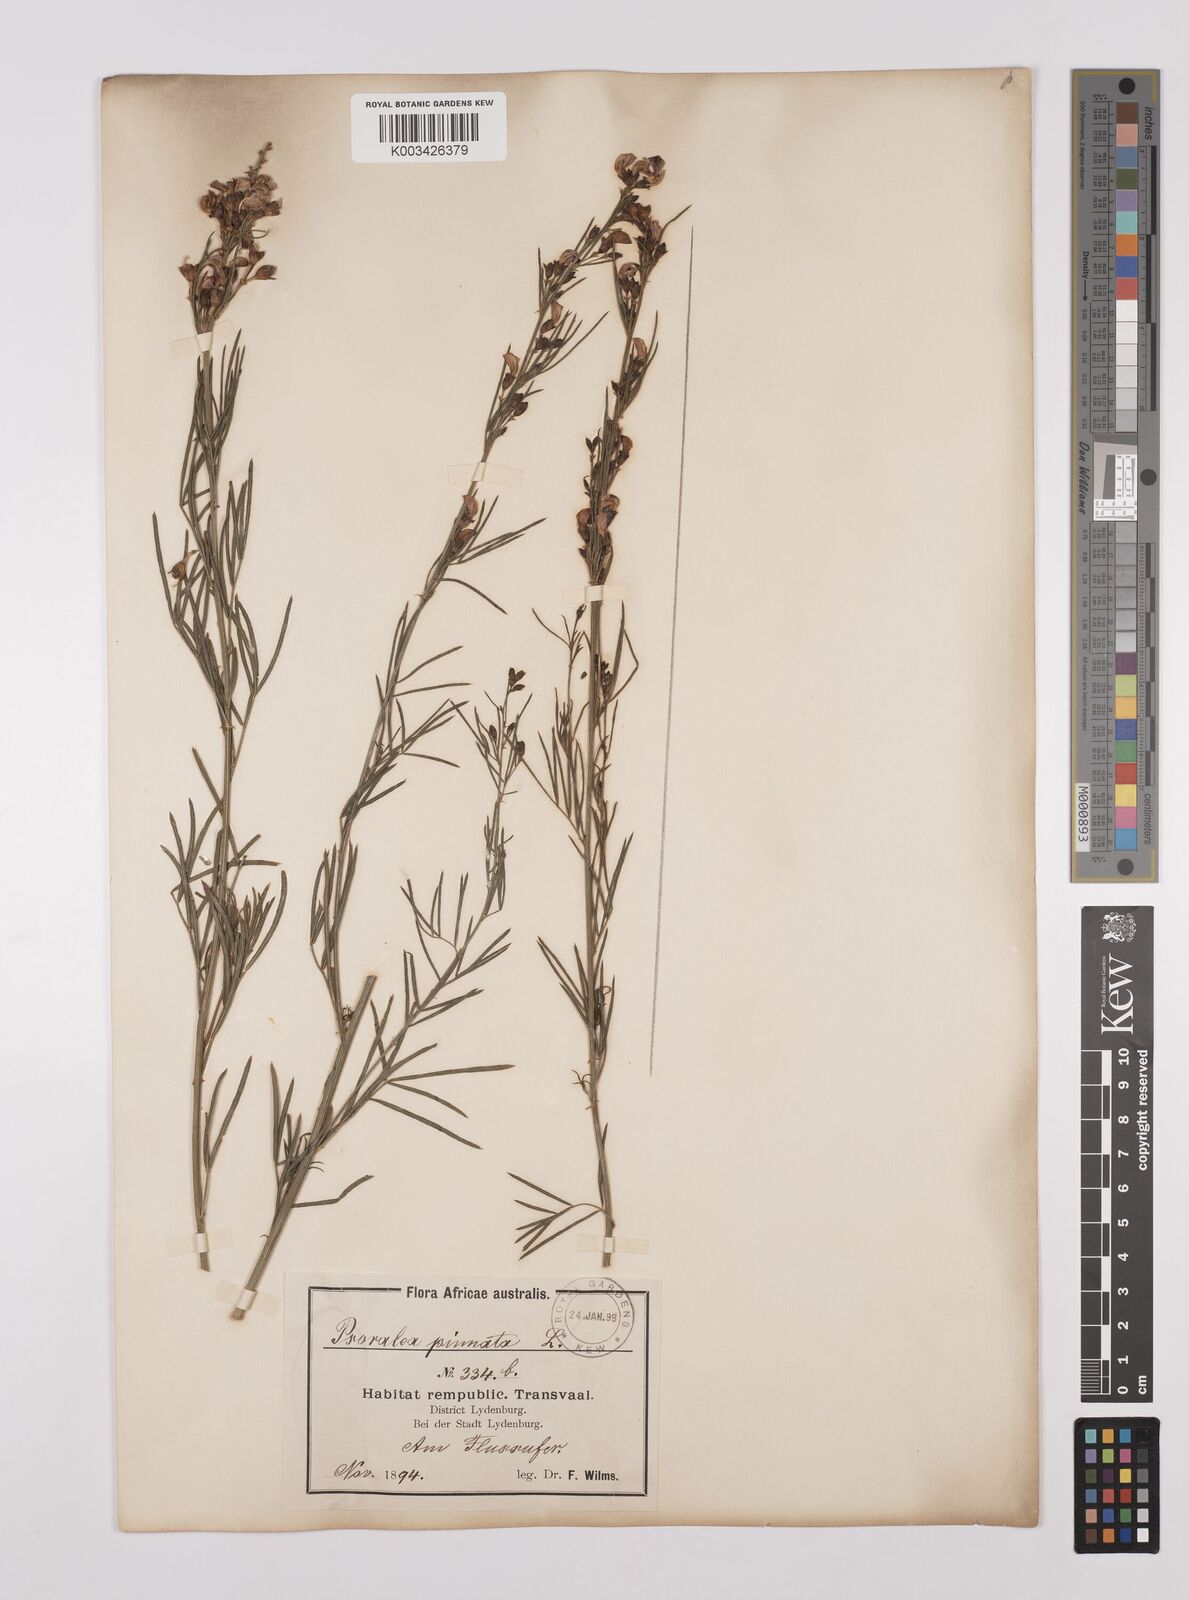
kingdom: Plantae
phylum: Tracheophyta
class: Magnoliopsida
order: Fabales
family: Fabaceae
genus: Psoralea
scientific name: Psoralea rhizotoma
